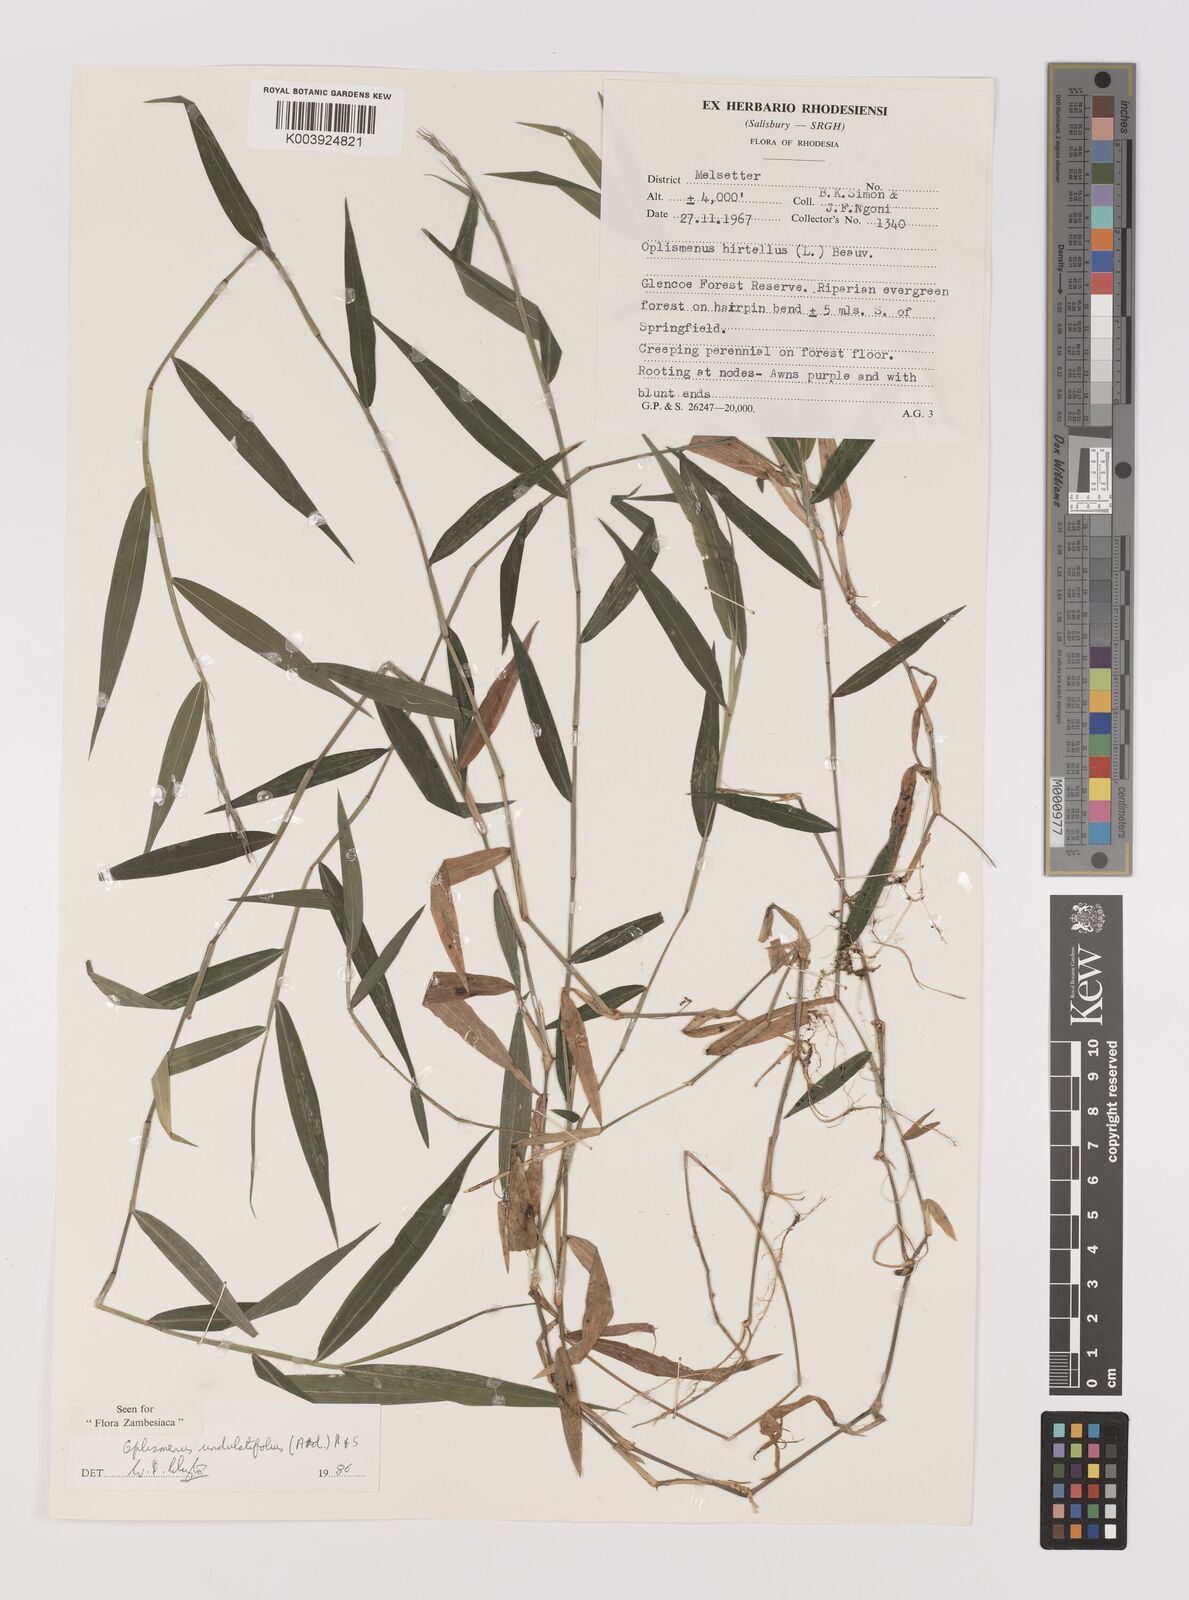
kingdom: Plantae
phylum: Tracheophyta
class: Liliopsida
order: Poales
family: Poaceae
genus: Oplismenus
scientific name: Oplismenus undulatifolius
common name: Wavyleaf basketgrass
